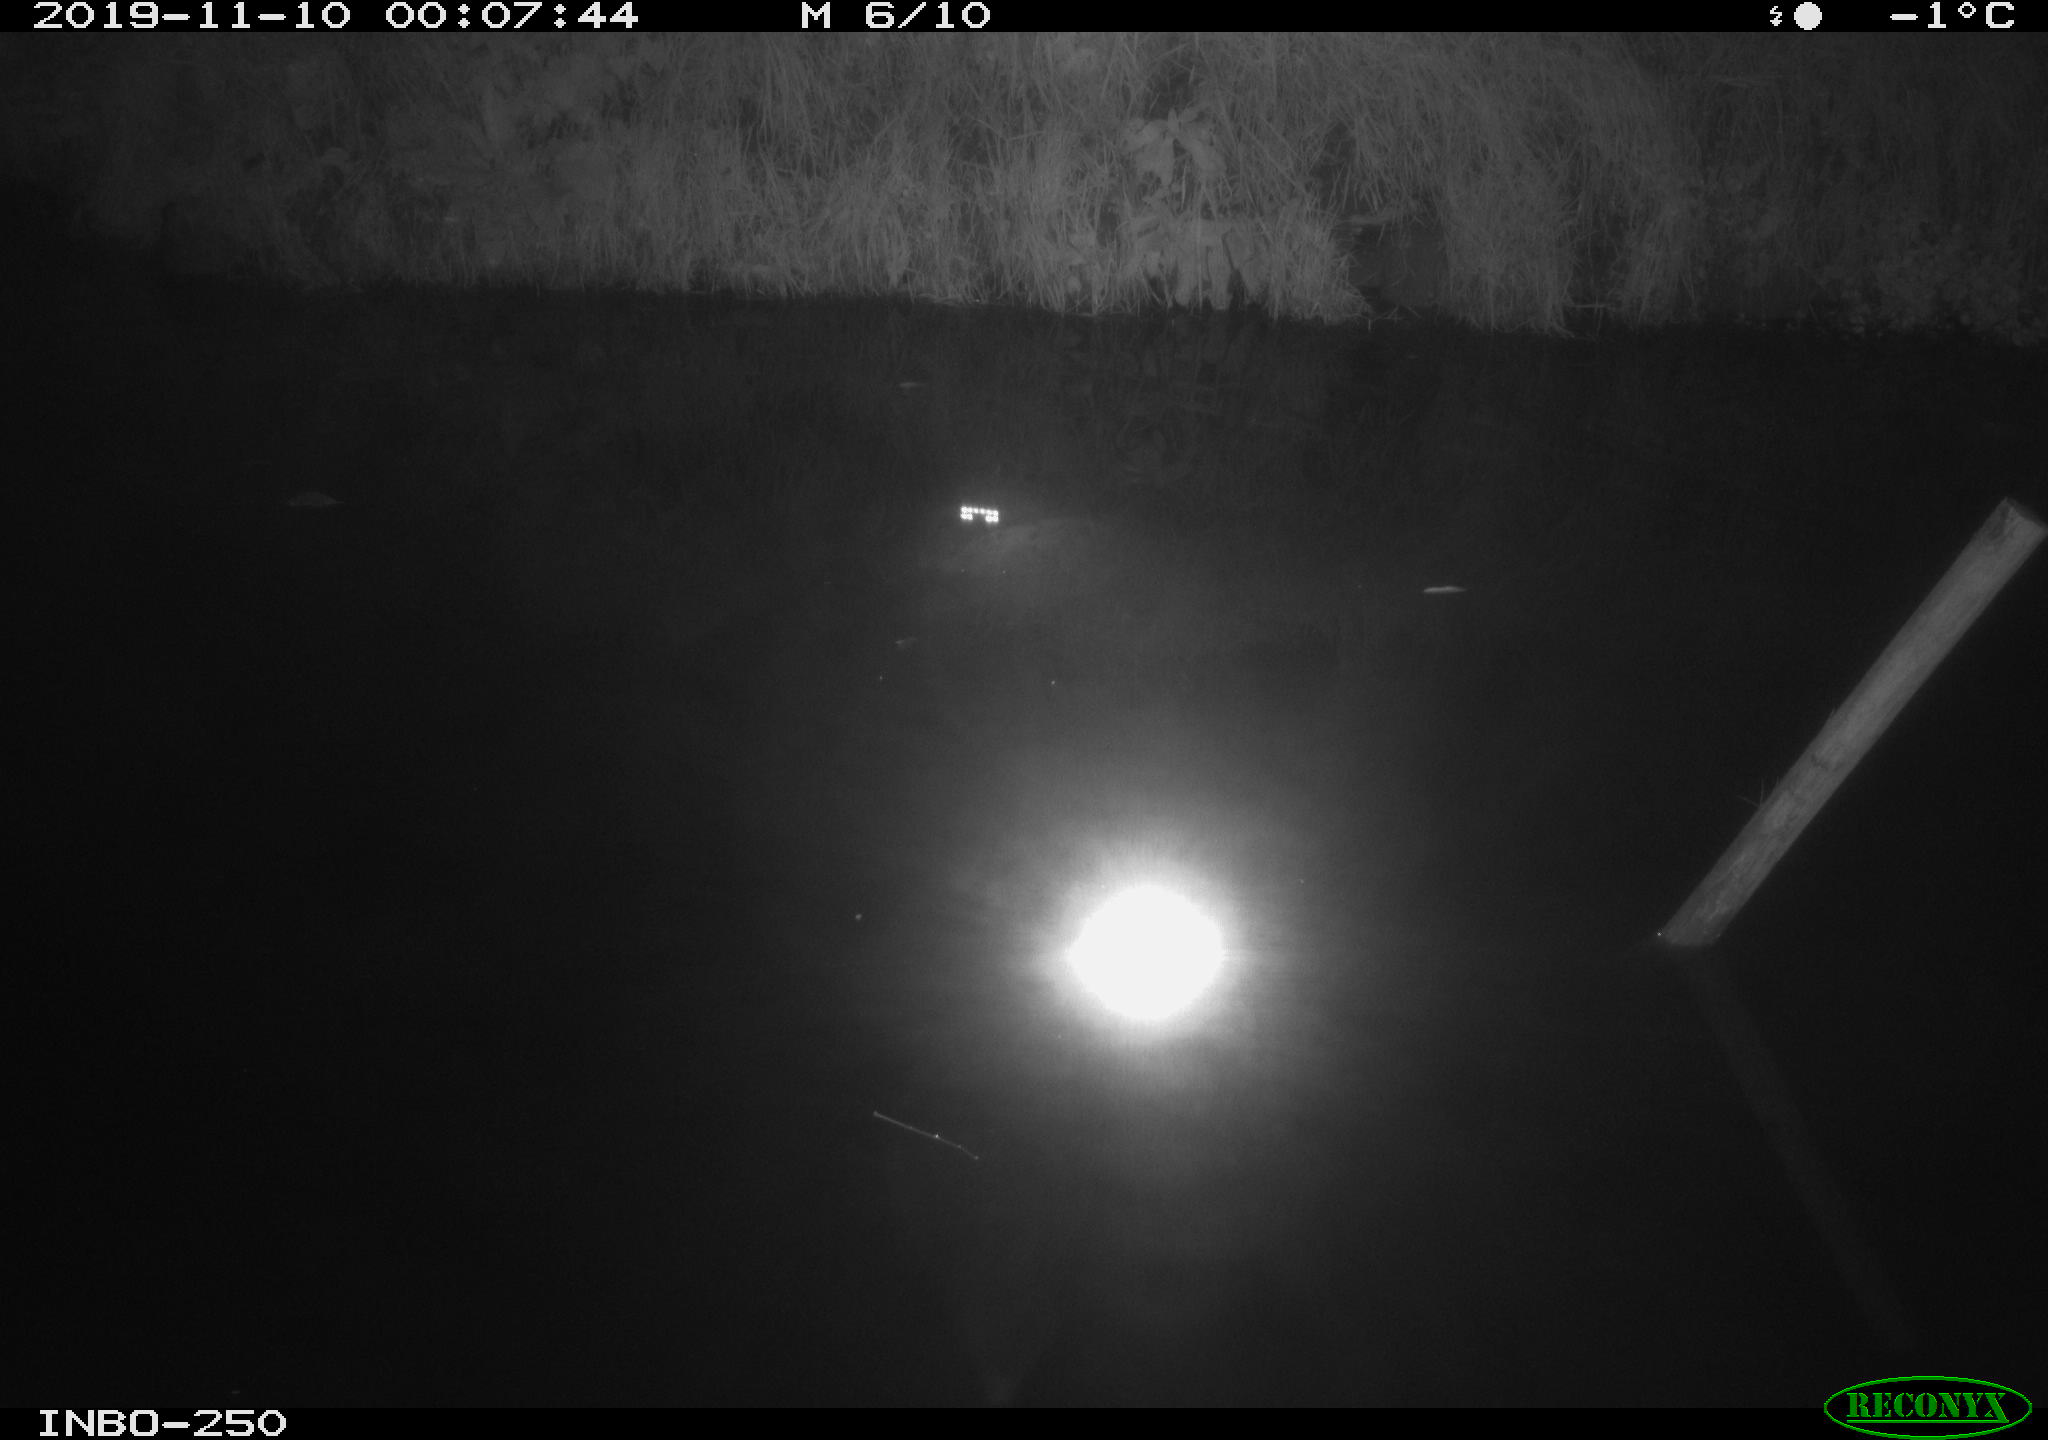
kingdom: Animalia
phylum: Chordata
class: Aves
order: Anseriformes
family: Anatidae
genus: Anas
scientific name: Anas platyrhynchos
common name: Mallard
